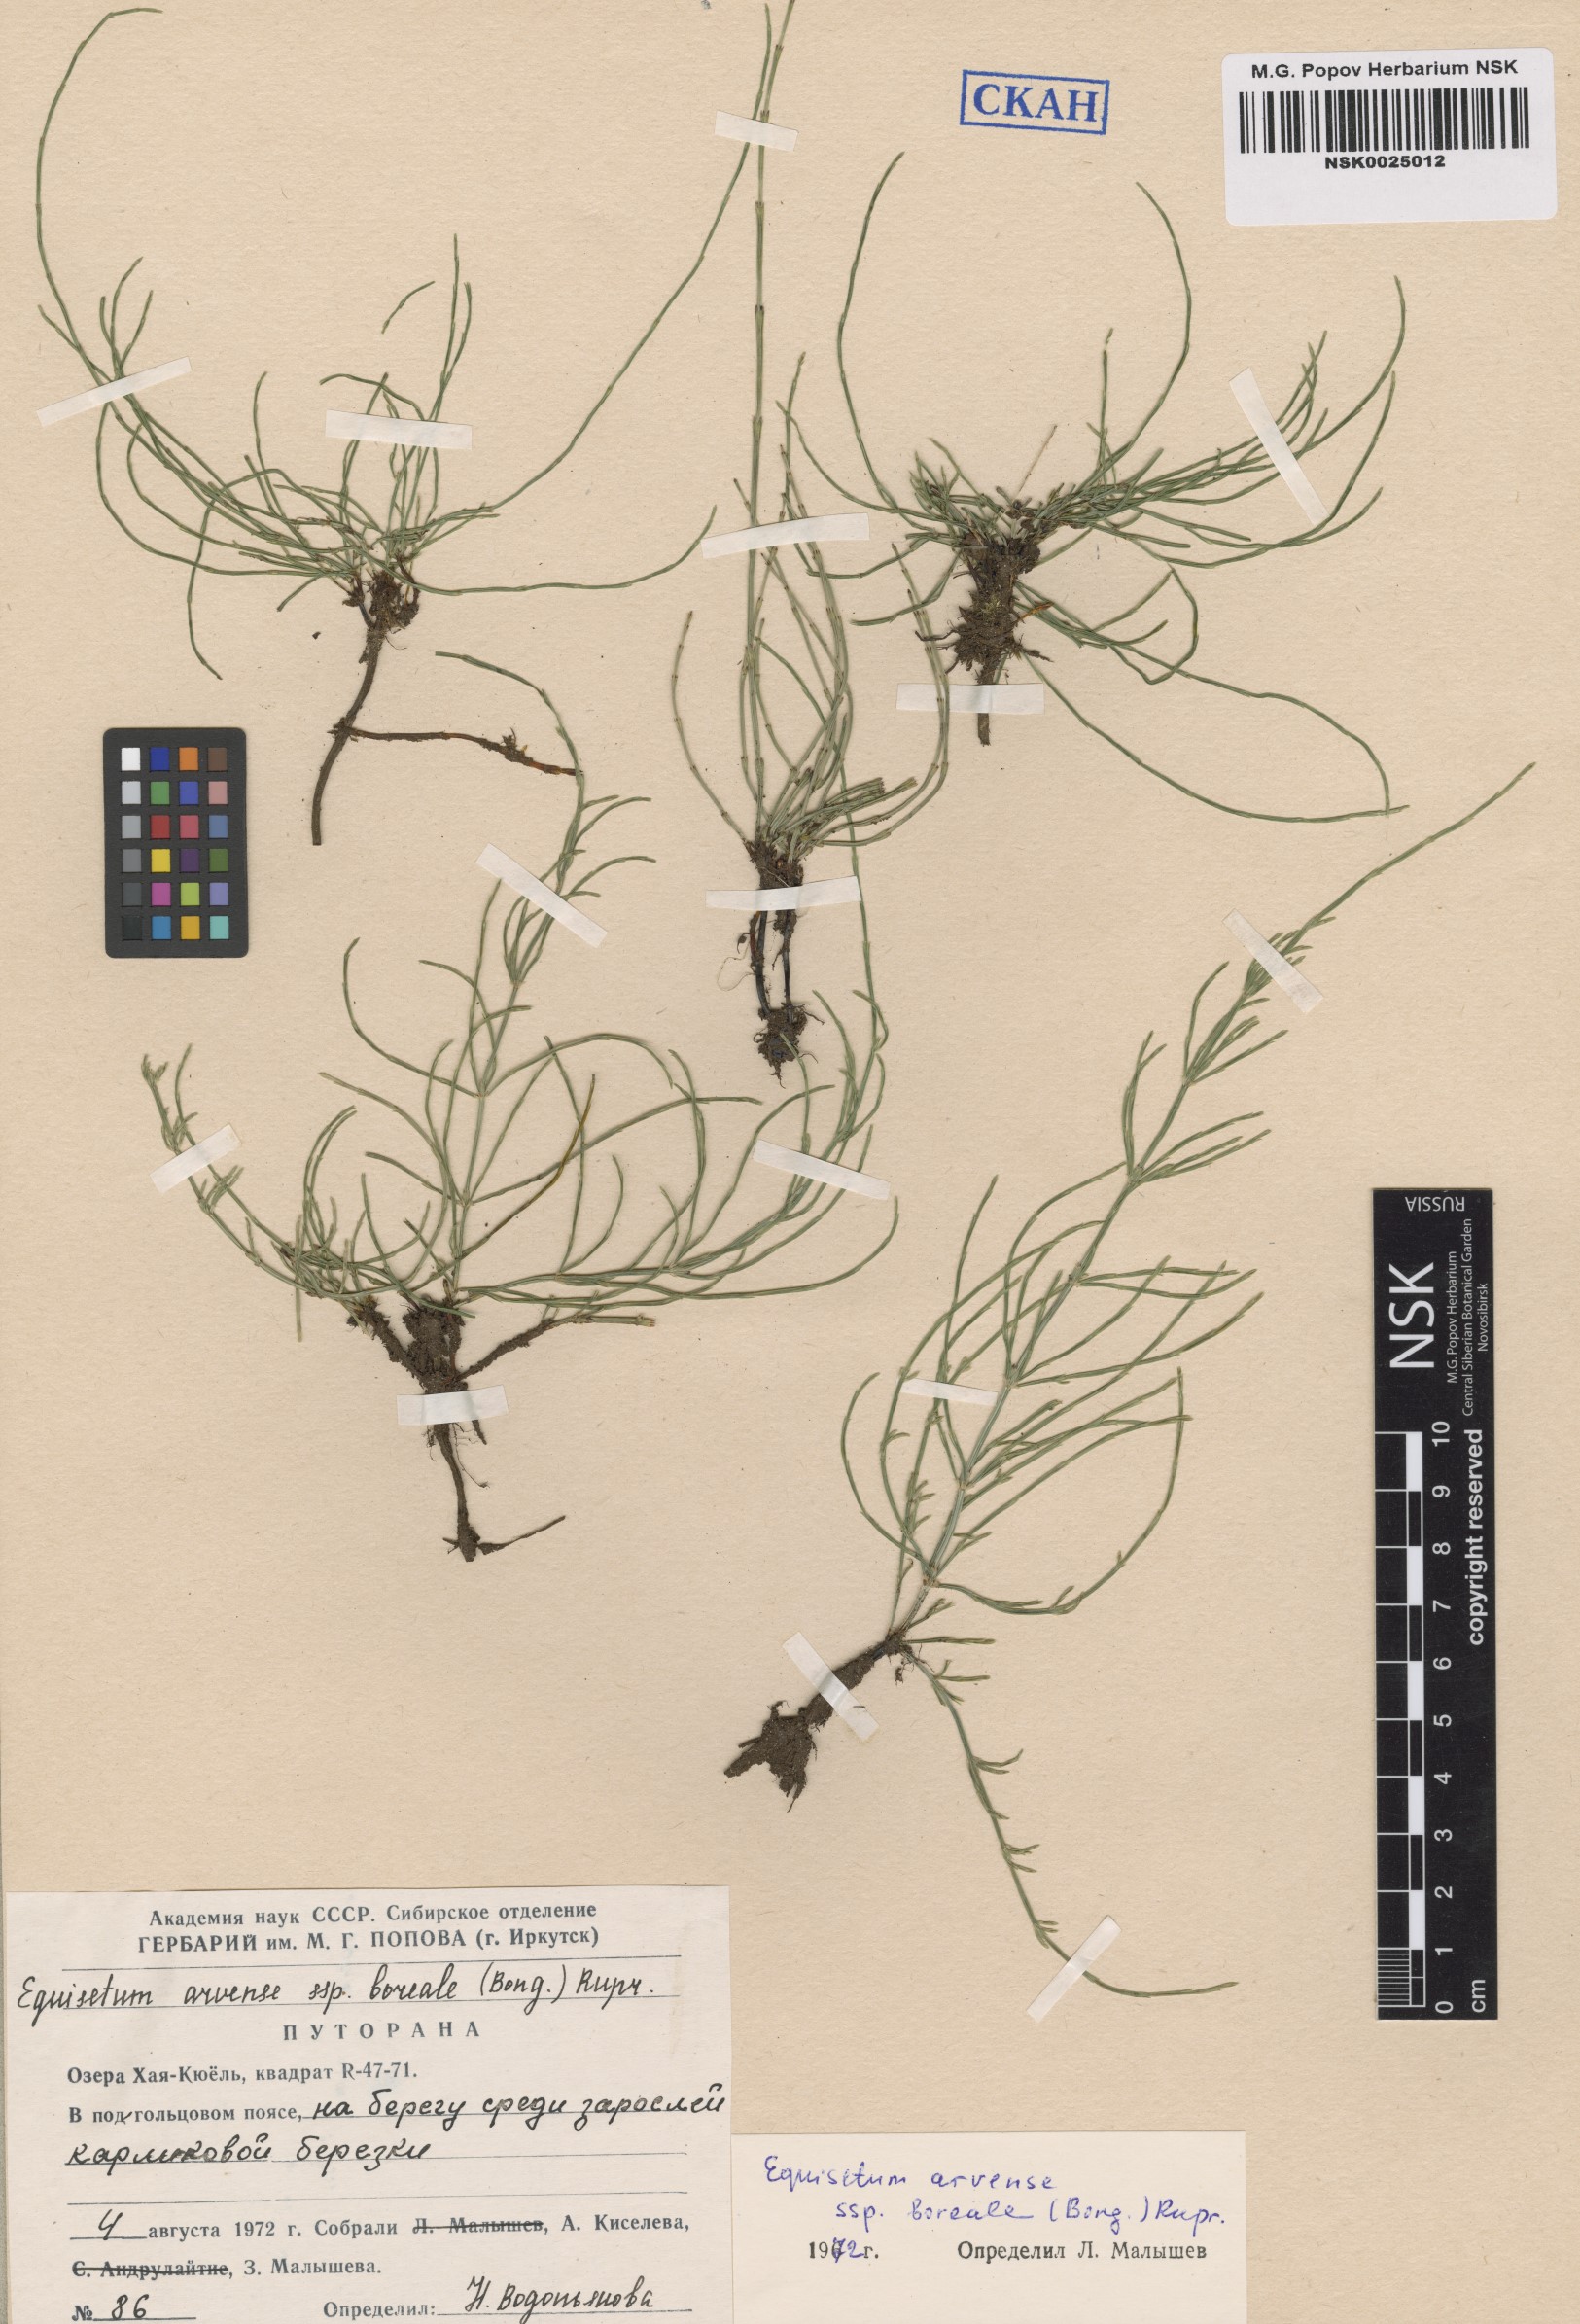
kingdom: Plantae
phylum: Tracheophyta
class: Polypodiopsida
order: Equisetales
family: Equisetaceae
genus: Equisetum
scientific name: Equisetum arvense
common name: Field horsetail
